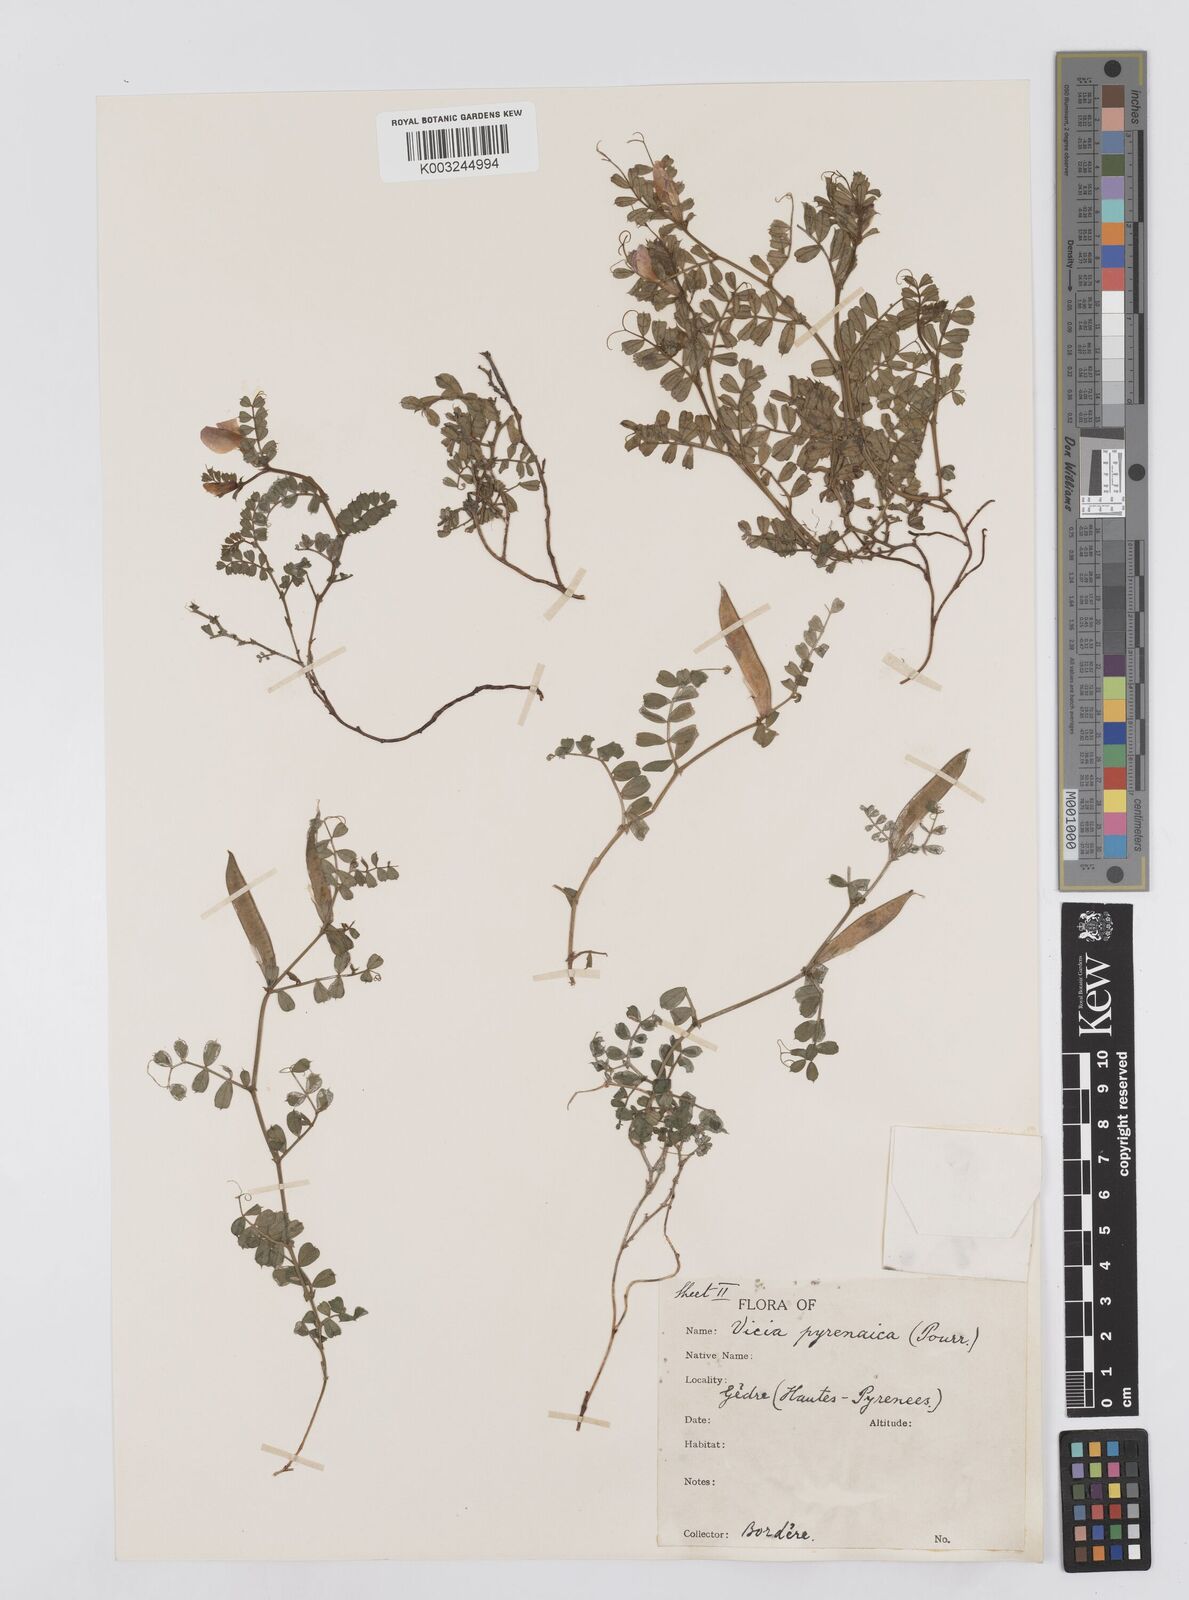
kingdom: Plantae
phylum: Tracheophyta
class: Magnoliopsida
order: Fabales
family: Fabaceae
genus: Vicia
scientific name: Vicia pyrenaica
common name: Pyrenean vetch
